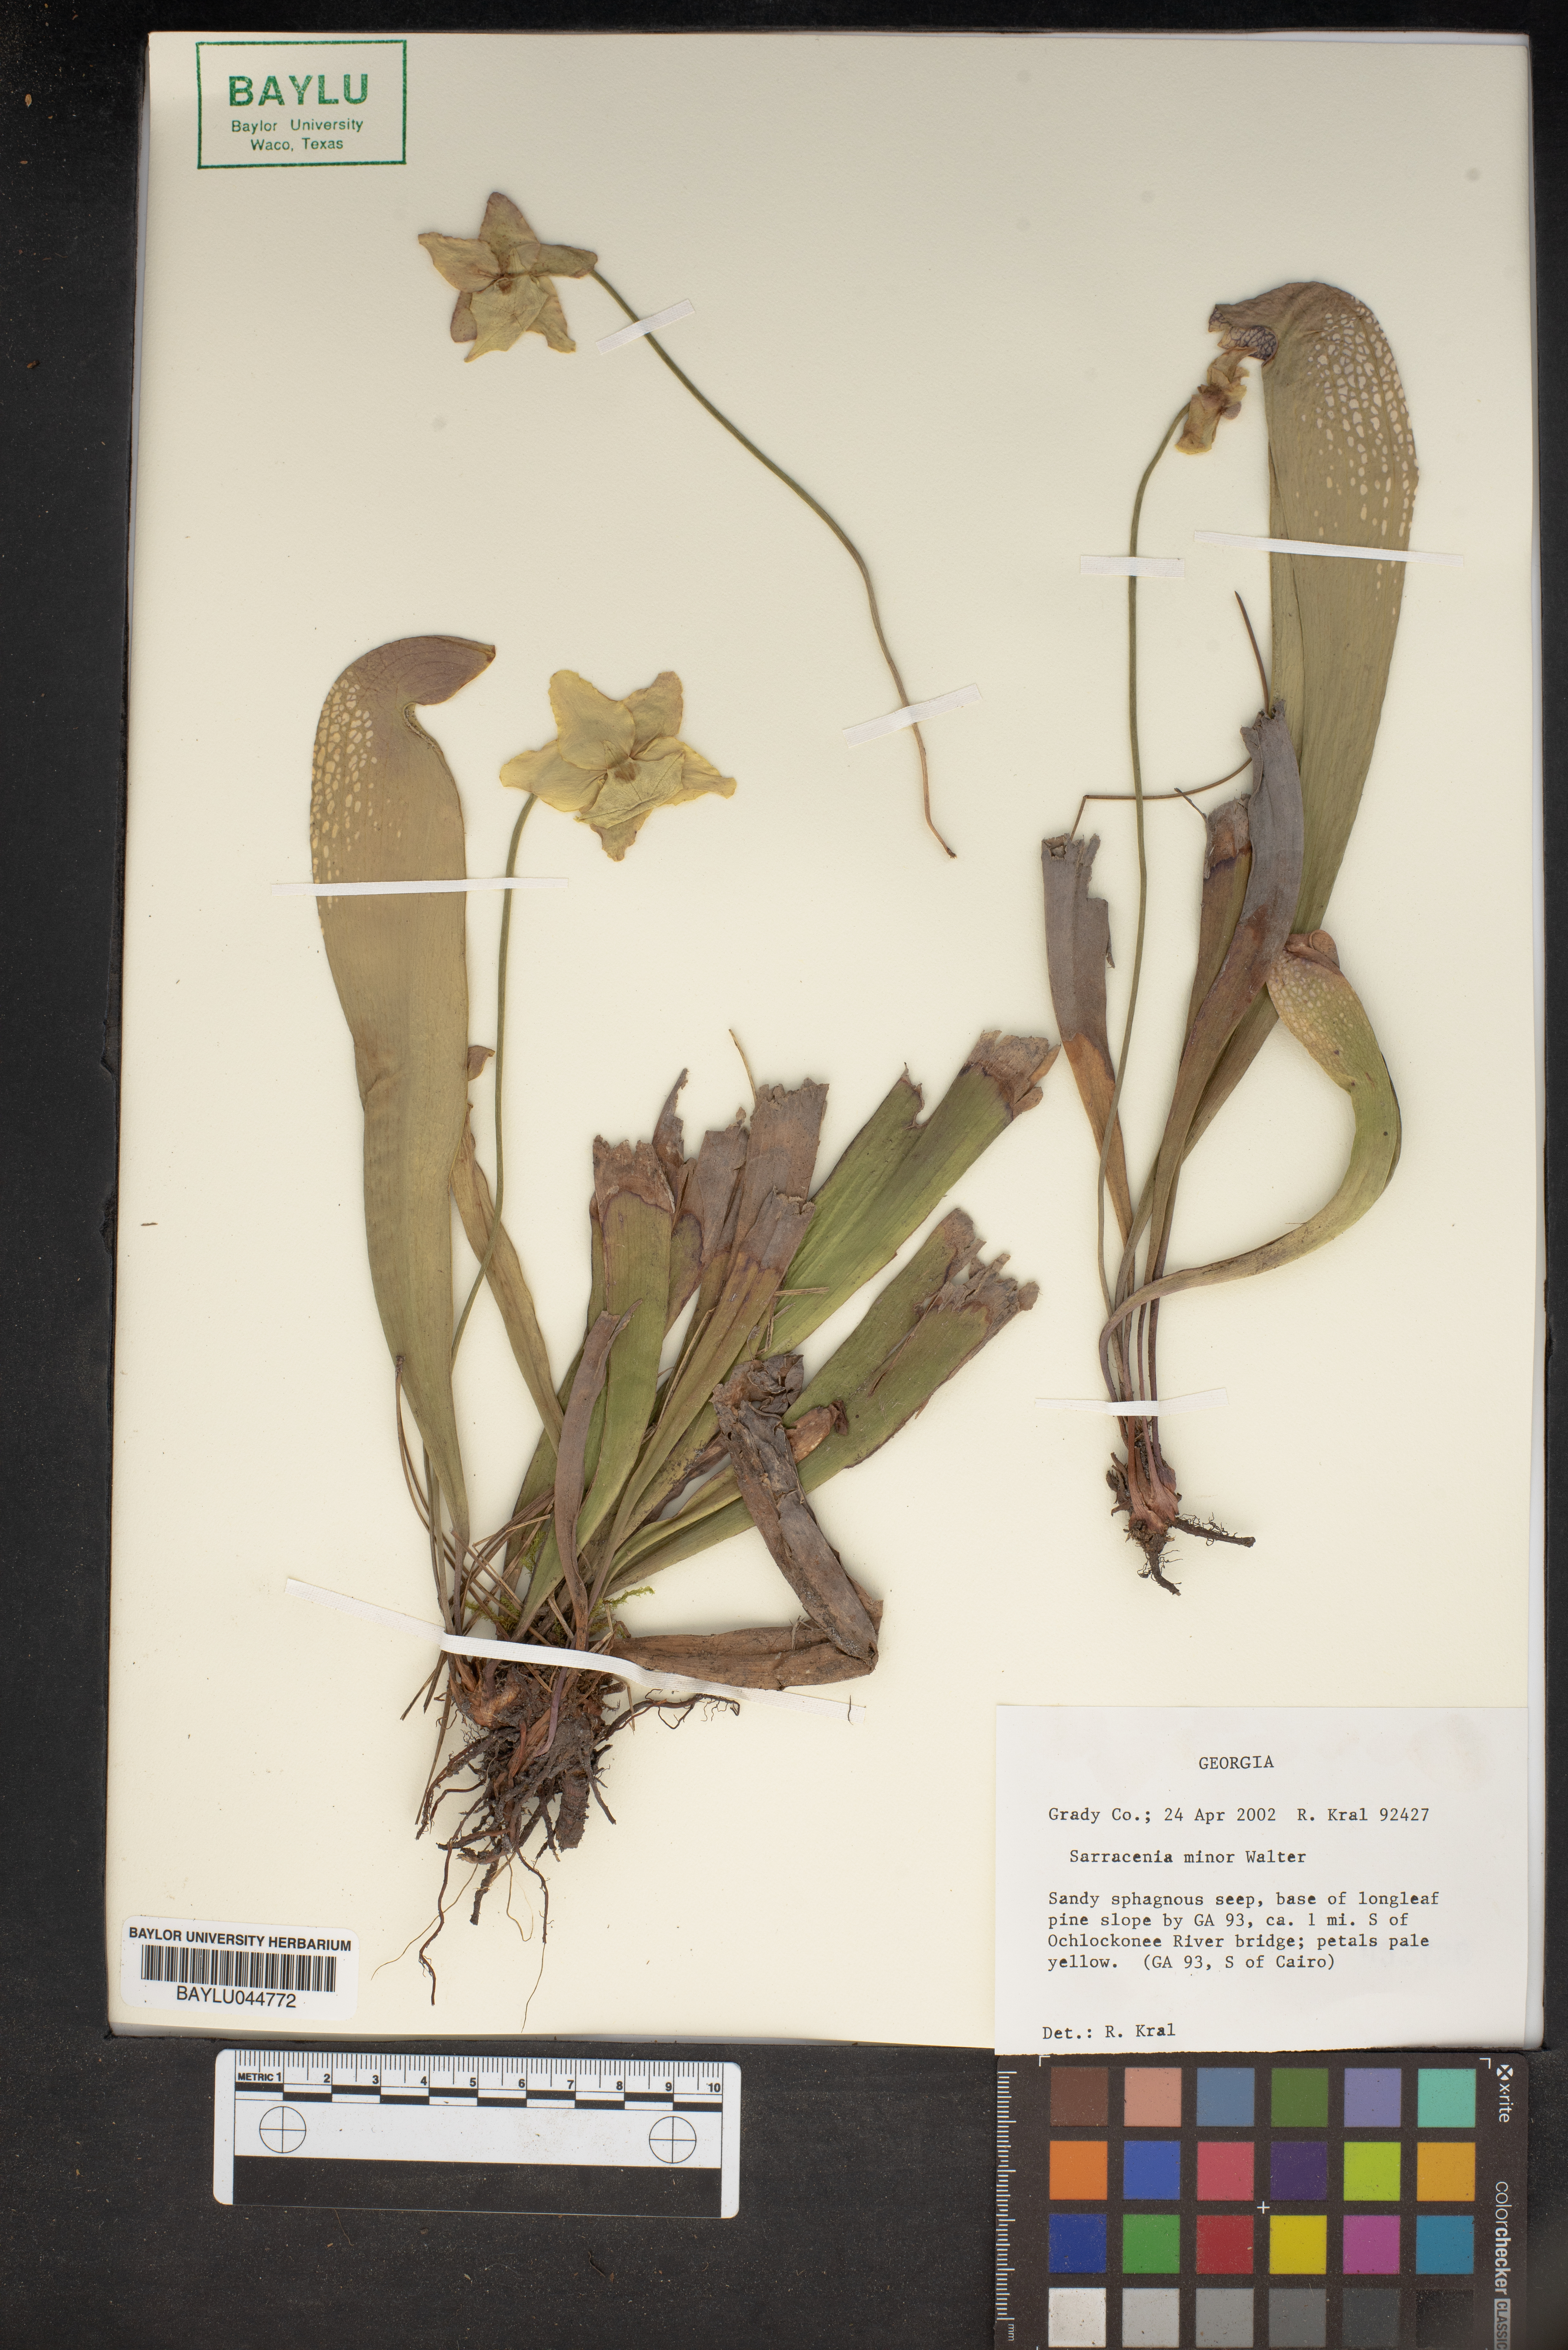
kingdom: Plantae
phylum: Tracheophyta
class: Magnoliopsida
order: Ericales
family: Sarraceniaceae
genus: Sarracenia
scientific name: Sarracenia minor
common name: Rainhat-trumpet
